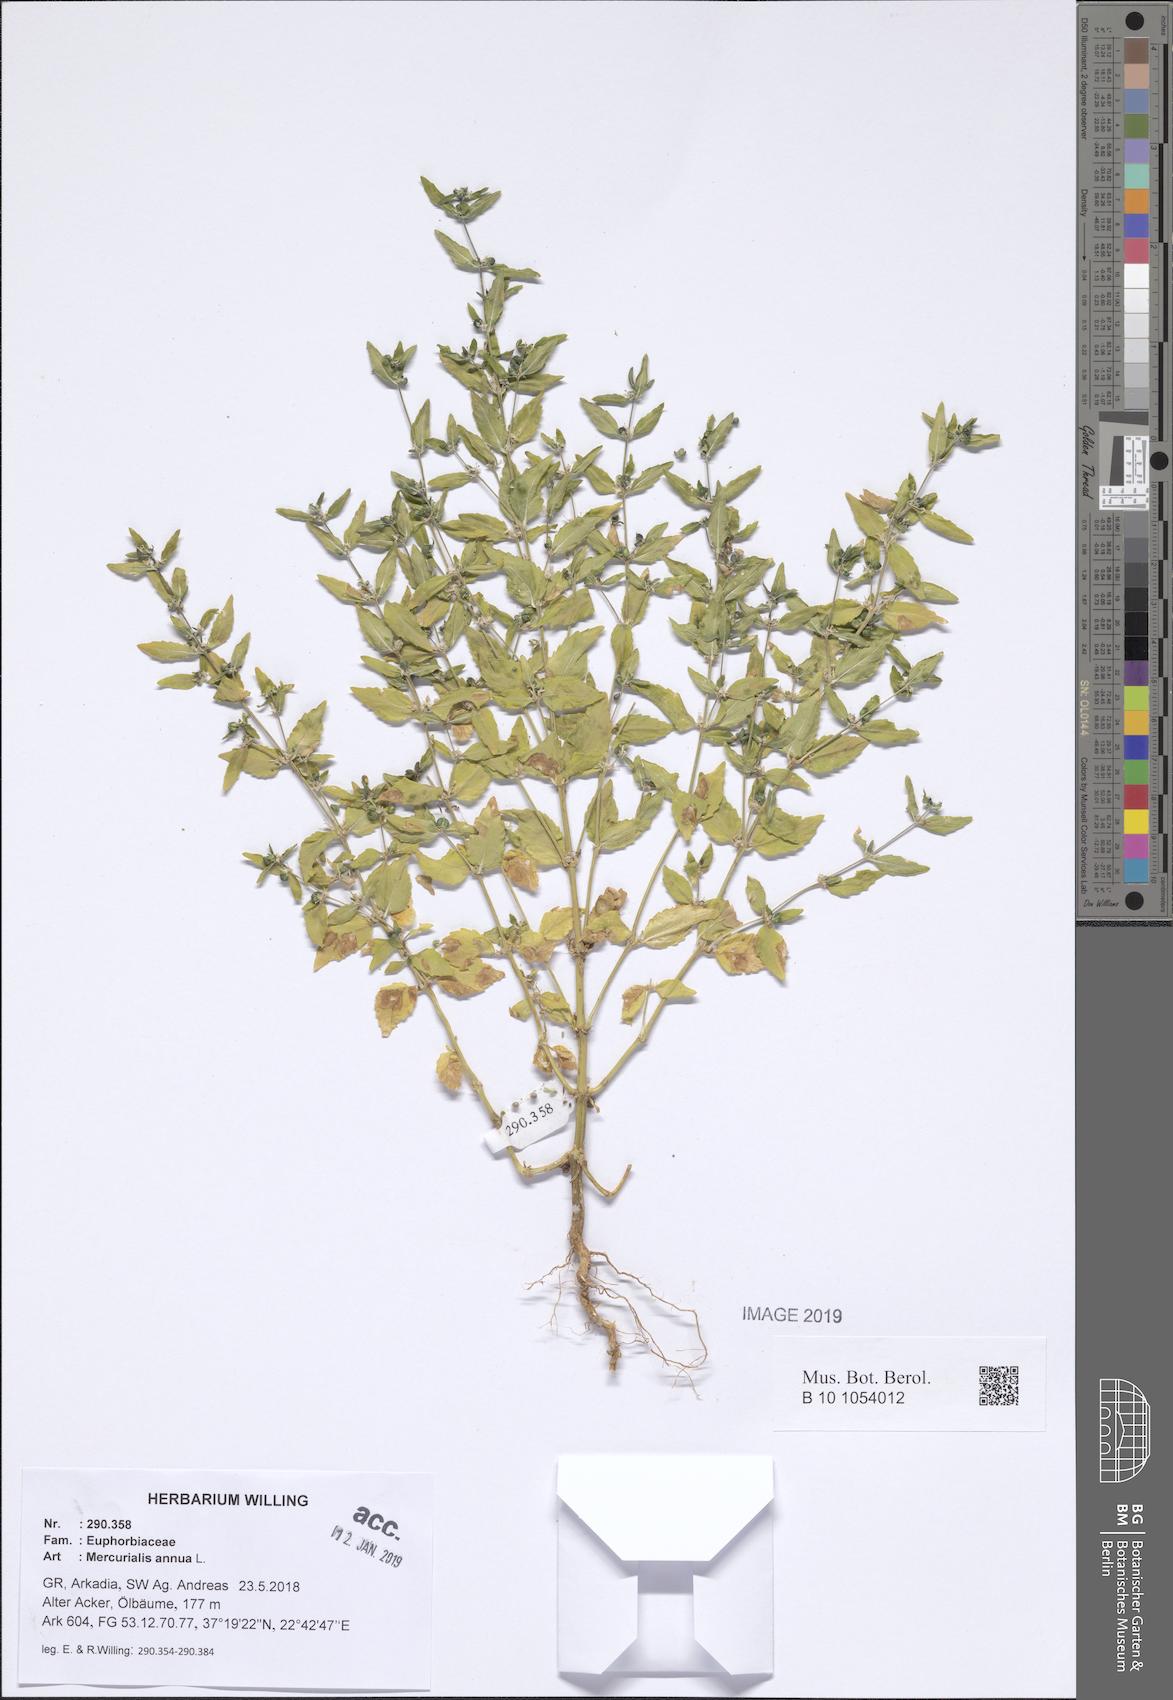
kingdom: Plantae
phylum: Tracheophyta
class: Magnoliopsida
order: Malpighiales
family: Euphorbiaceae
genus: Mercurialis
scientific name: Mercurialis annua
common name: Annual mercury
